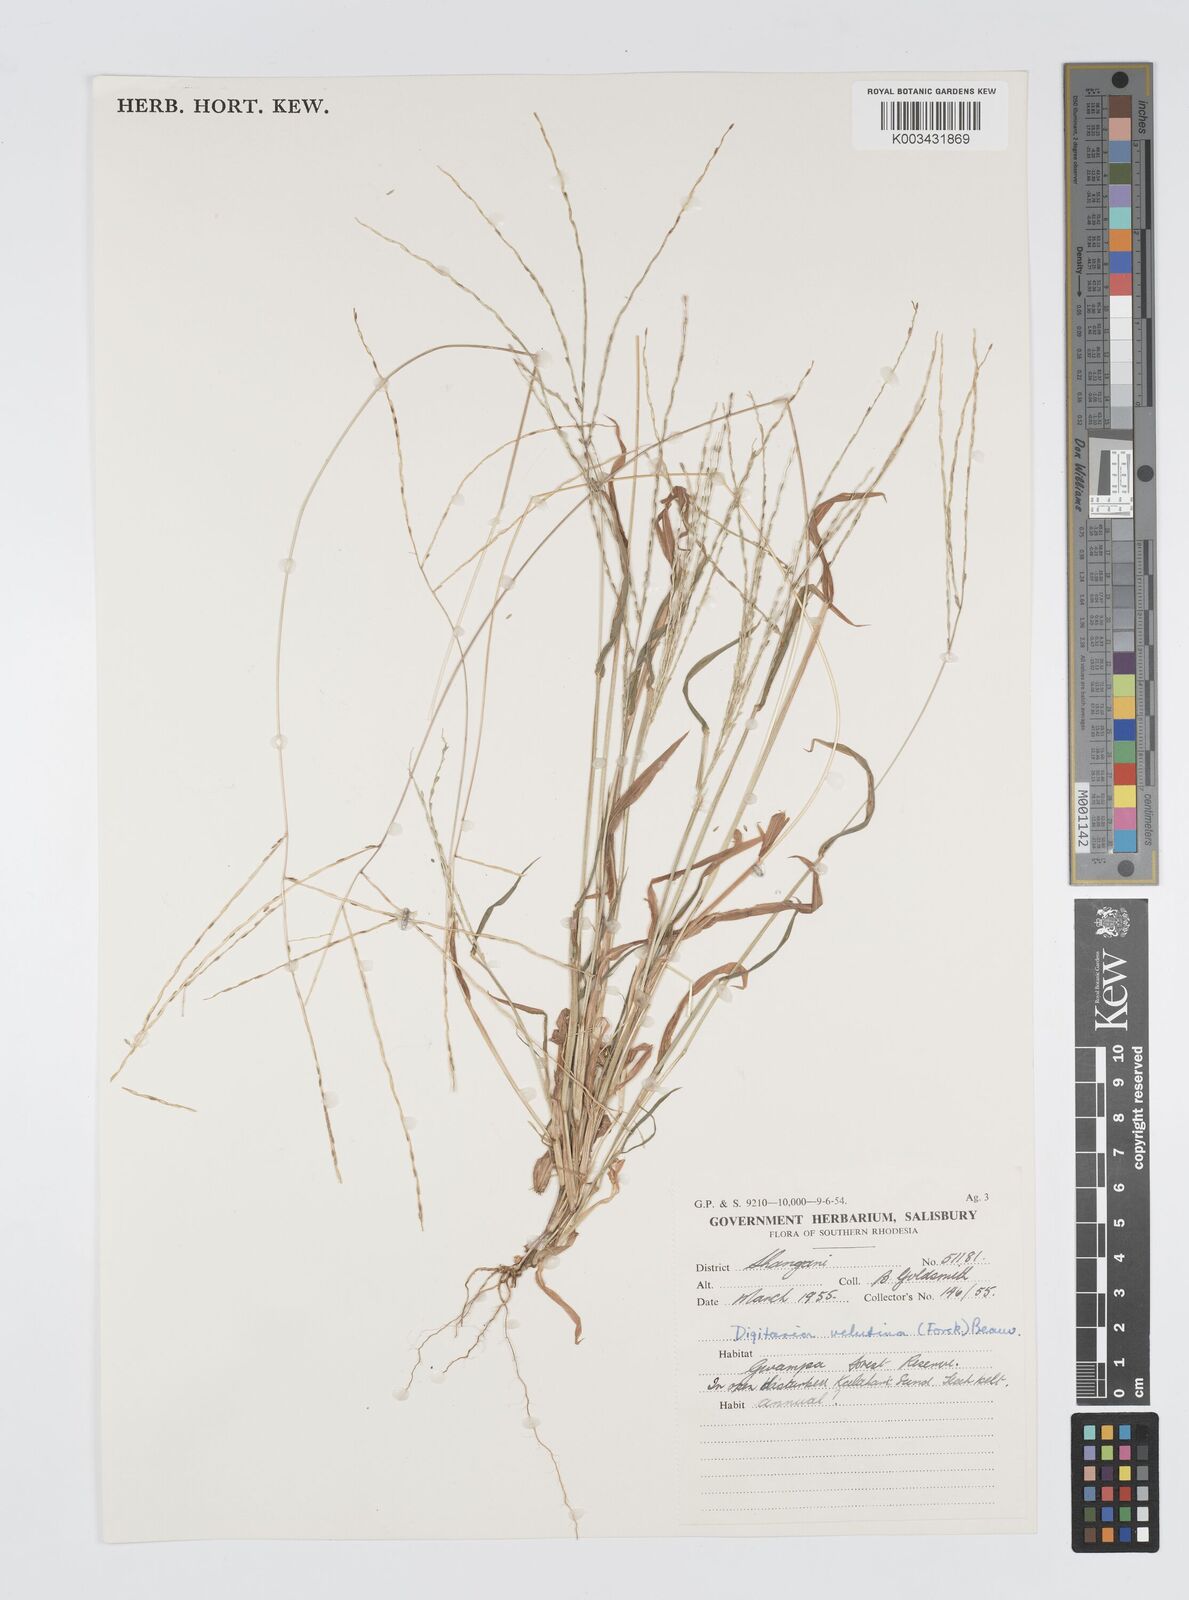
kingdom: Plantae
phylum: Tracheophyta
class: Liliopsida
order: Poales
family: Poaceae
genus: Digitaria
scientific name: Digitaria velutina
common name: Long-plume finger grass
